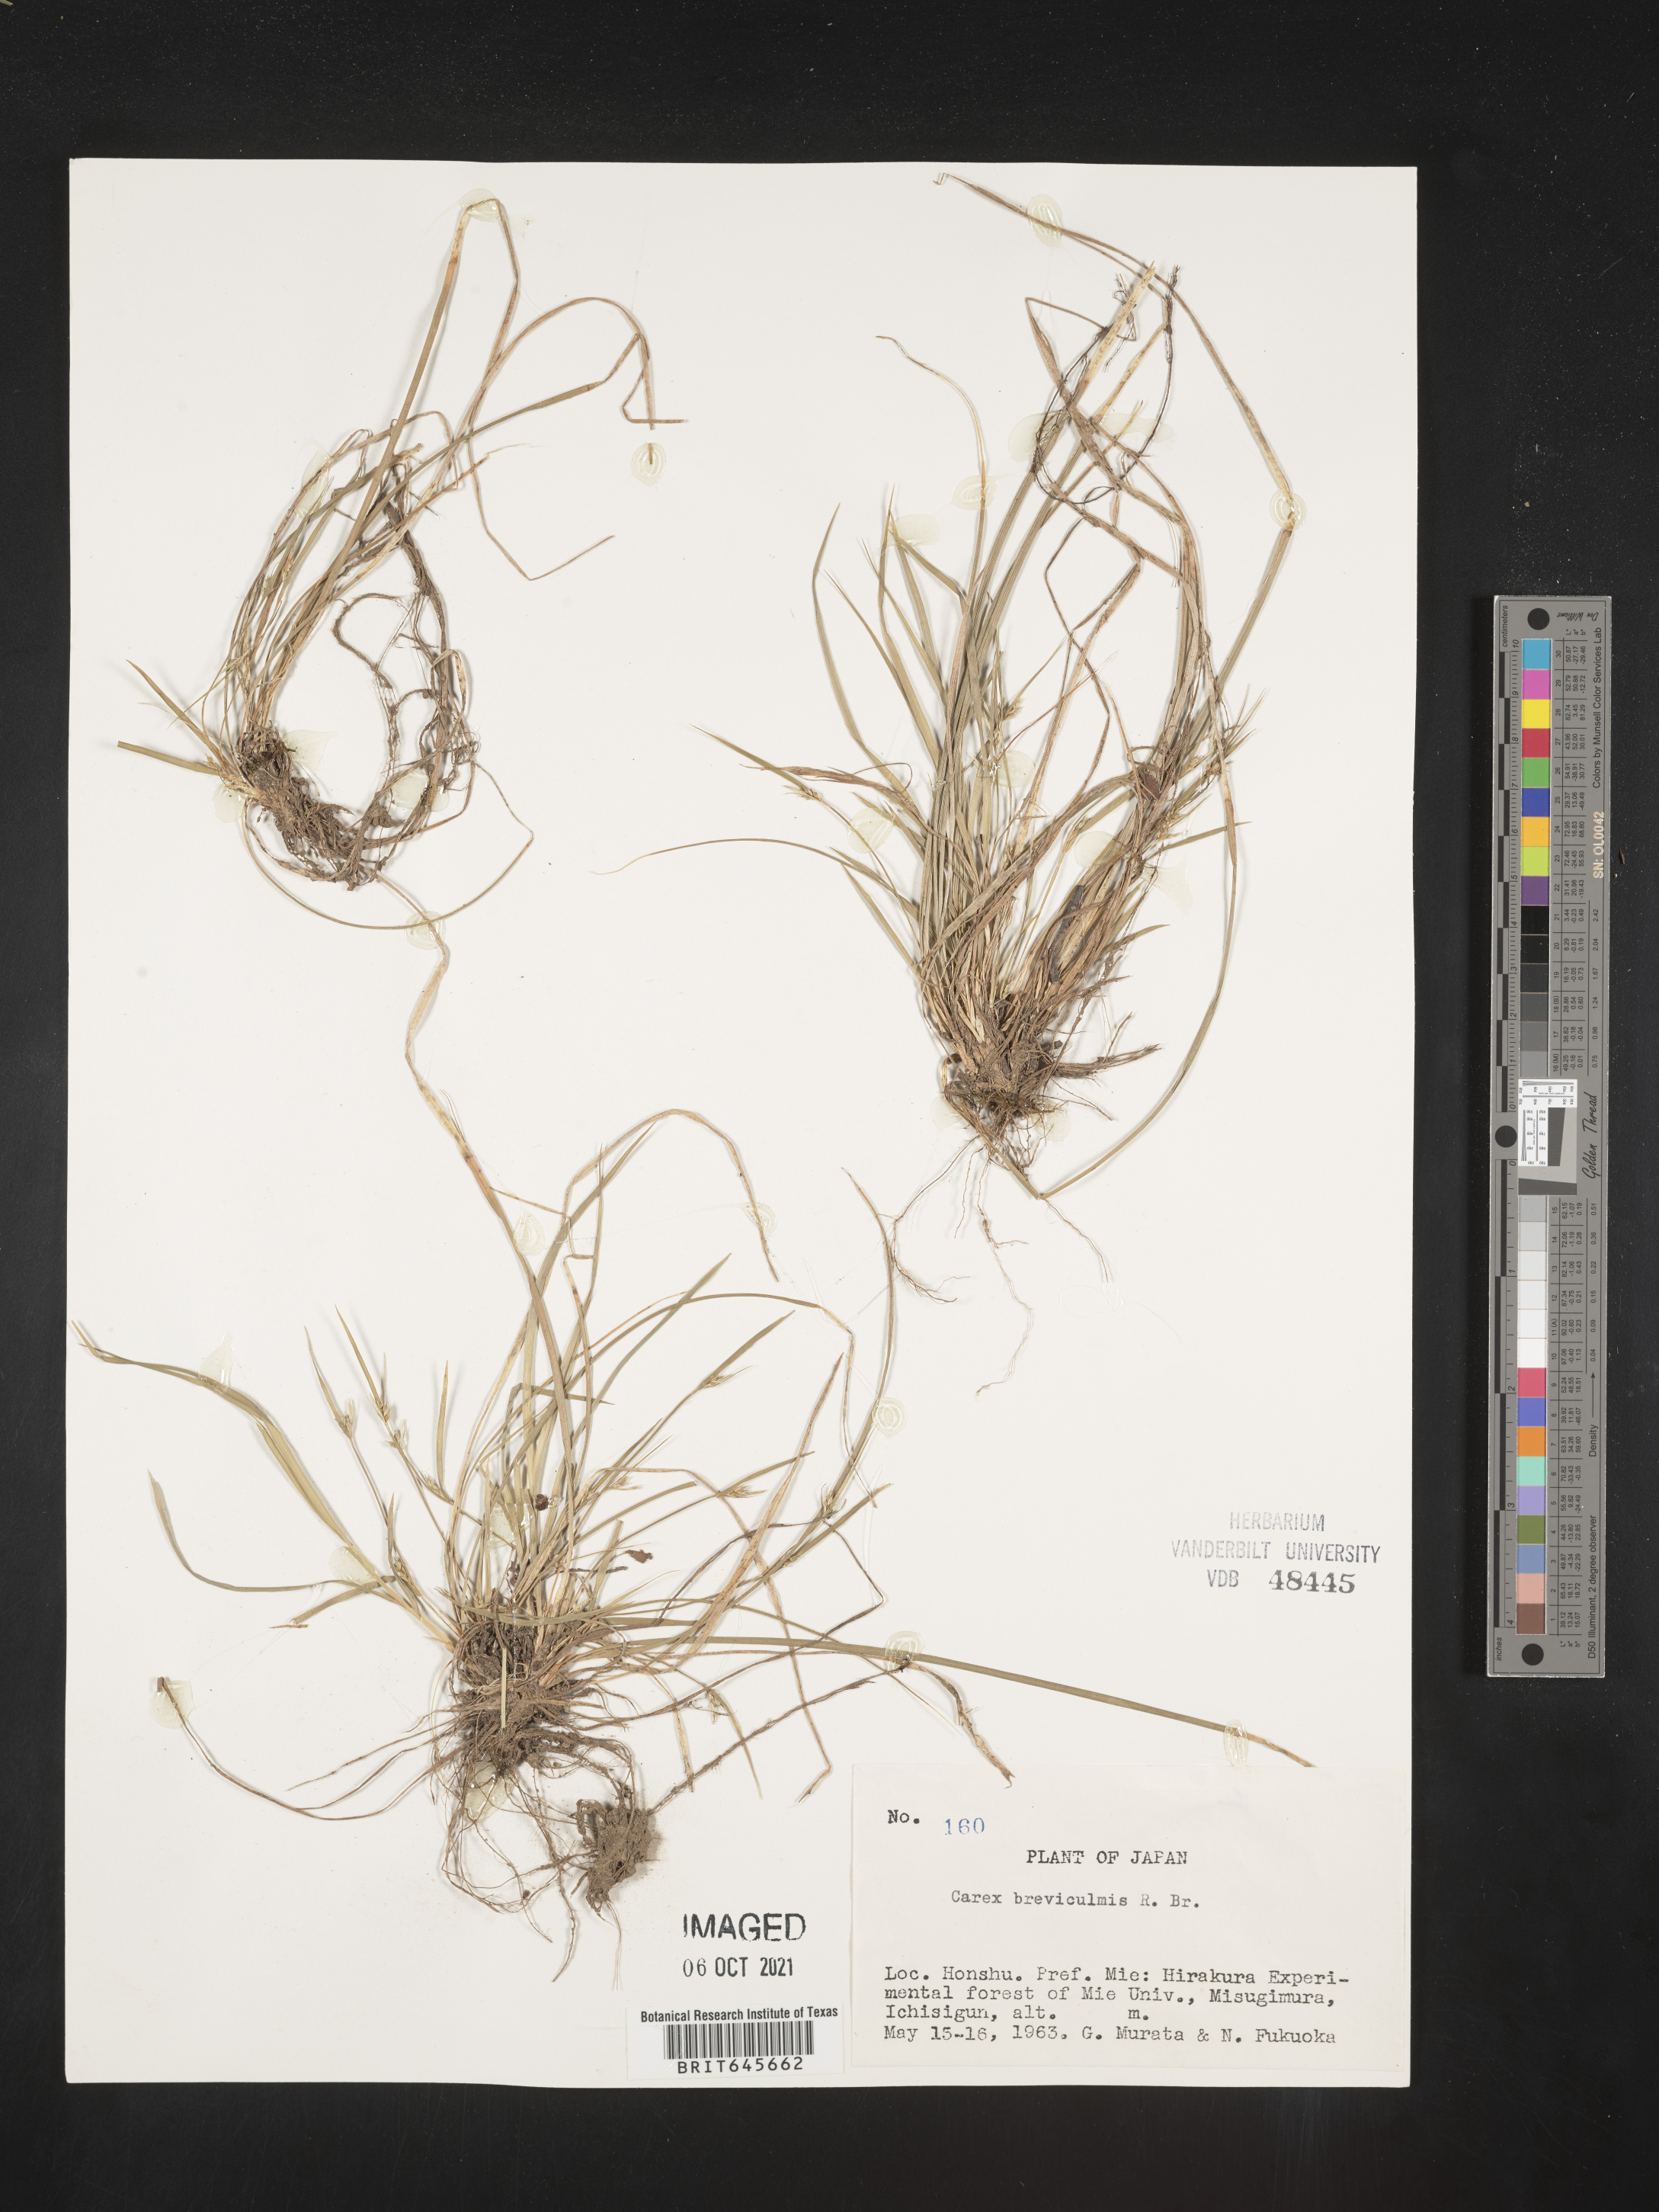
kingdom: Plantae
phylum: Tracheophyta
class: Liliopsida
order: Poales
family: Cyperaceae
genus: Carex
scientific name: Carex breviculmis
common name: Asian shortstem sedge
